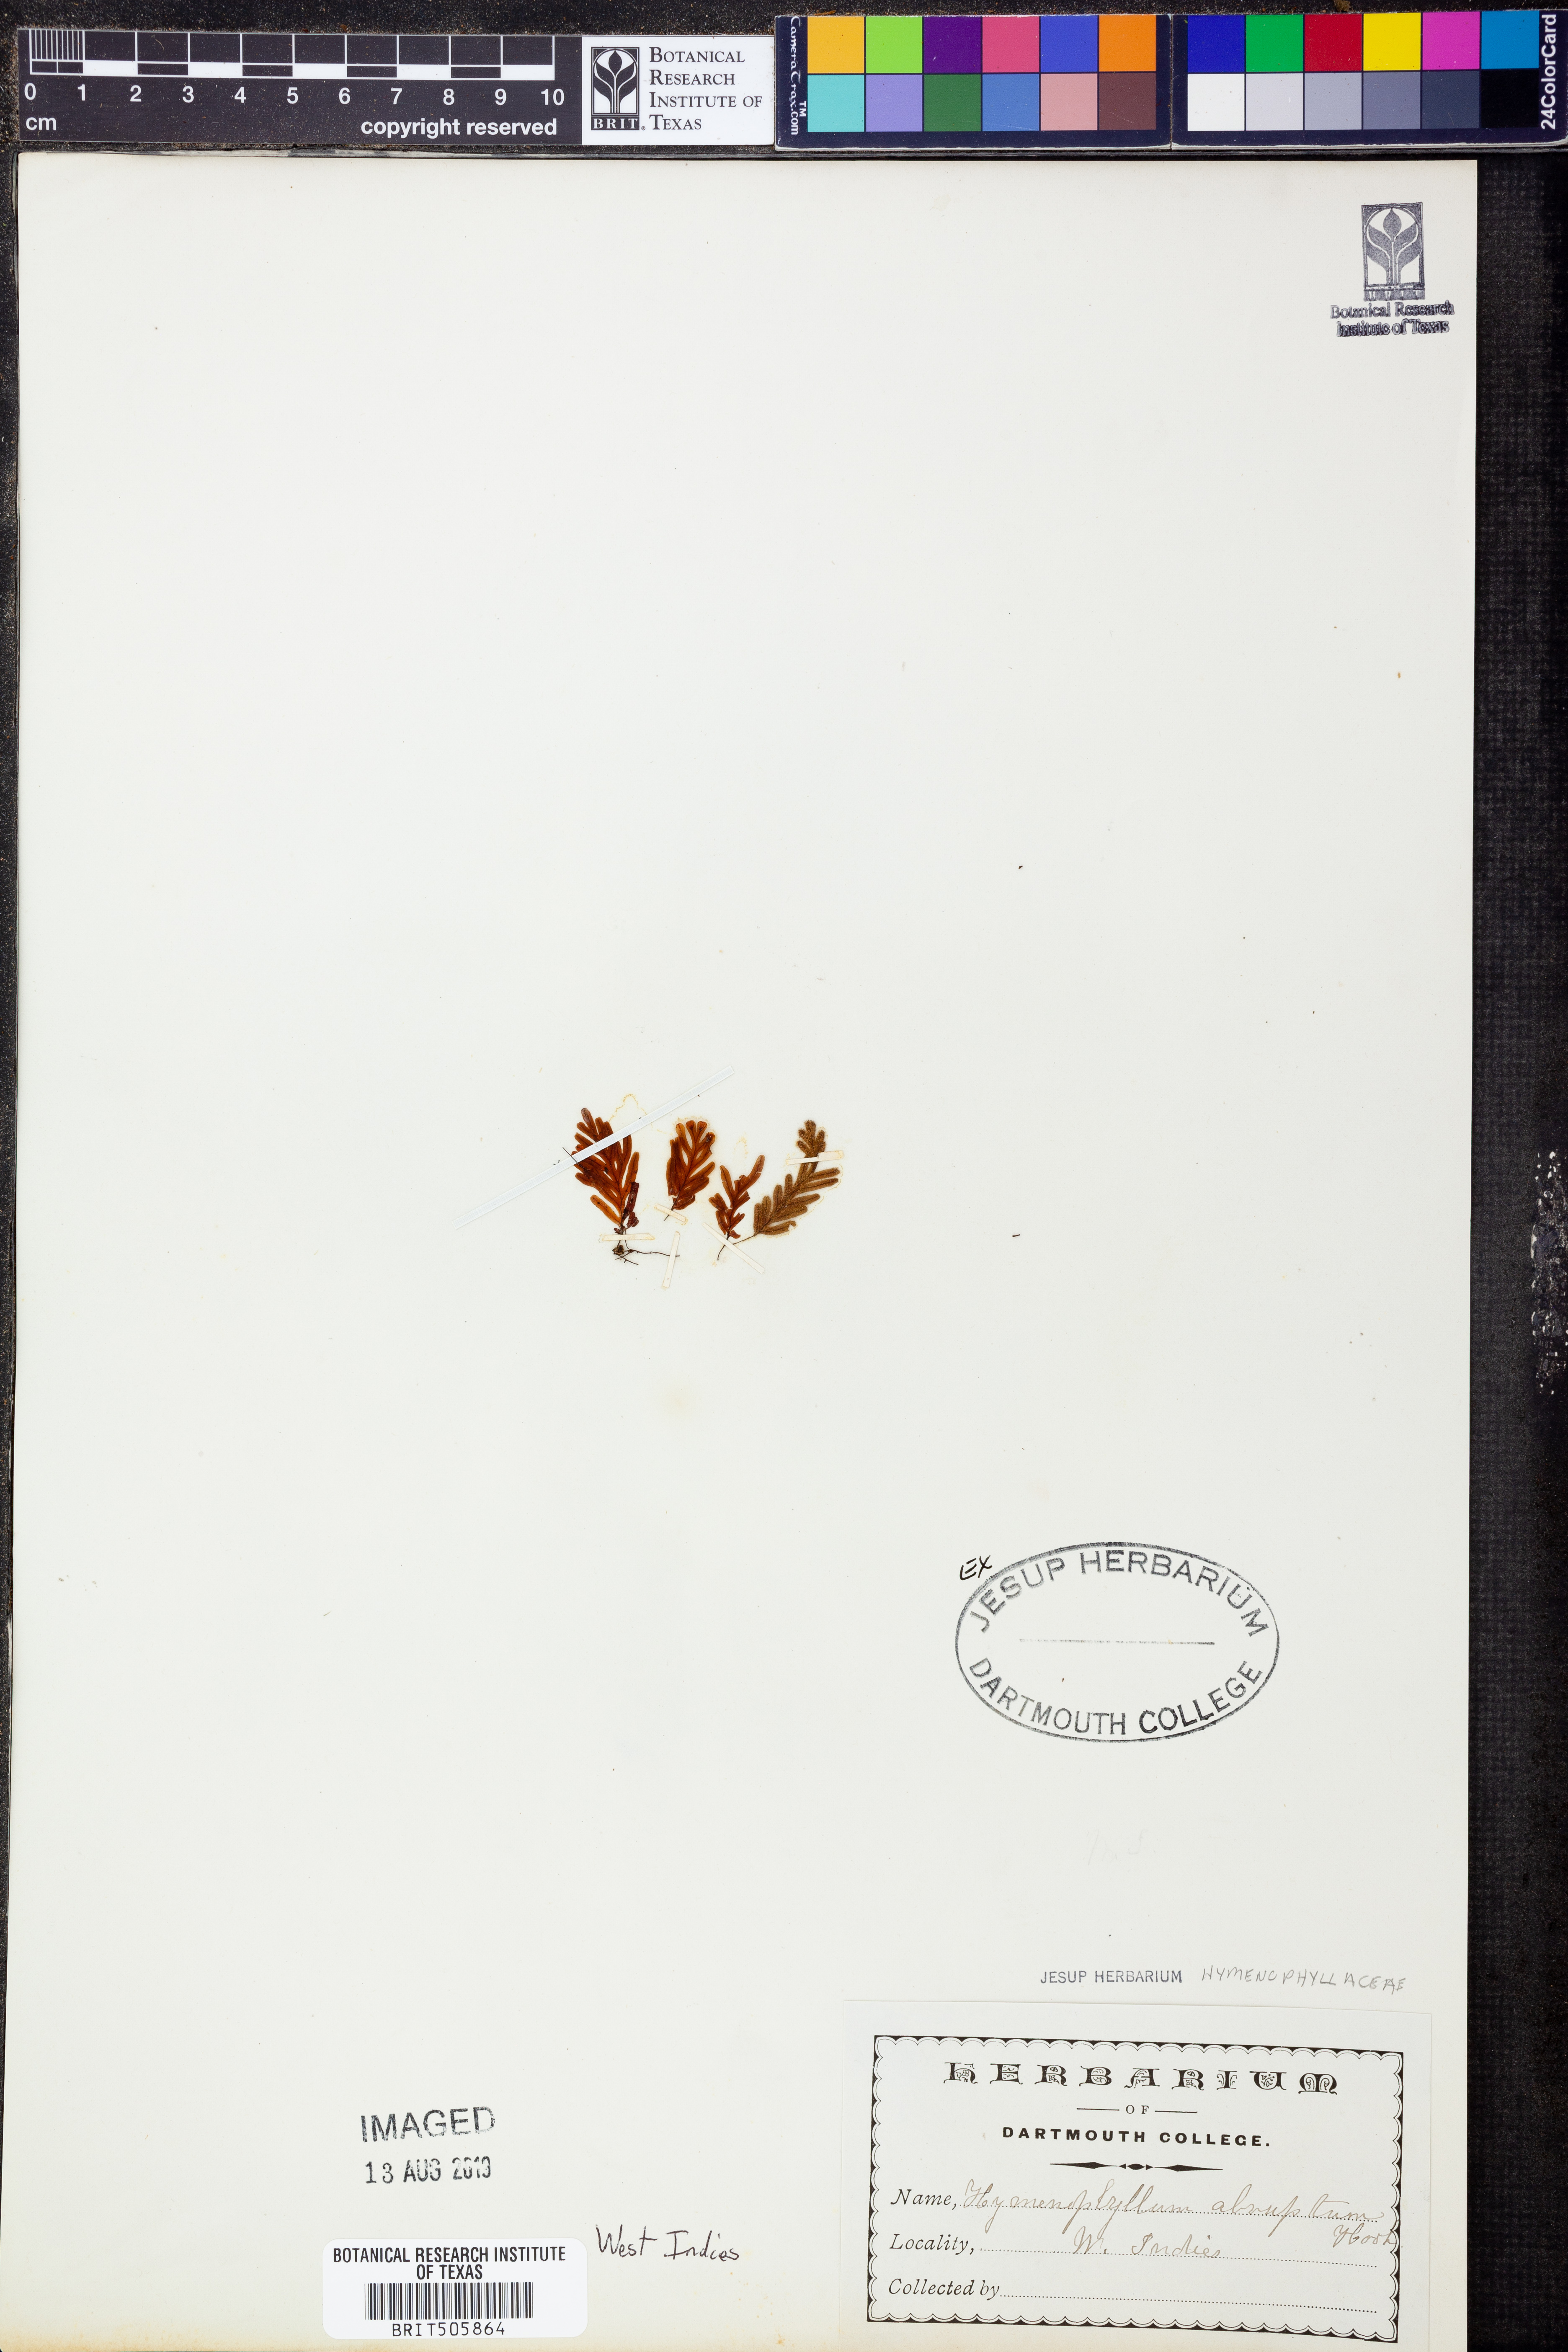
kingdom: Plantae
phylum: Tracheophyta
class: Polypodiopsida
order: Hymenophyllales
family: Hymenophyllaceae
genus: Hymenophyllum
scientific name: Hymenophyllum abruptum
